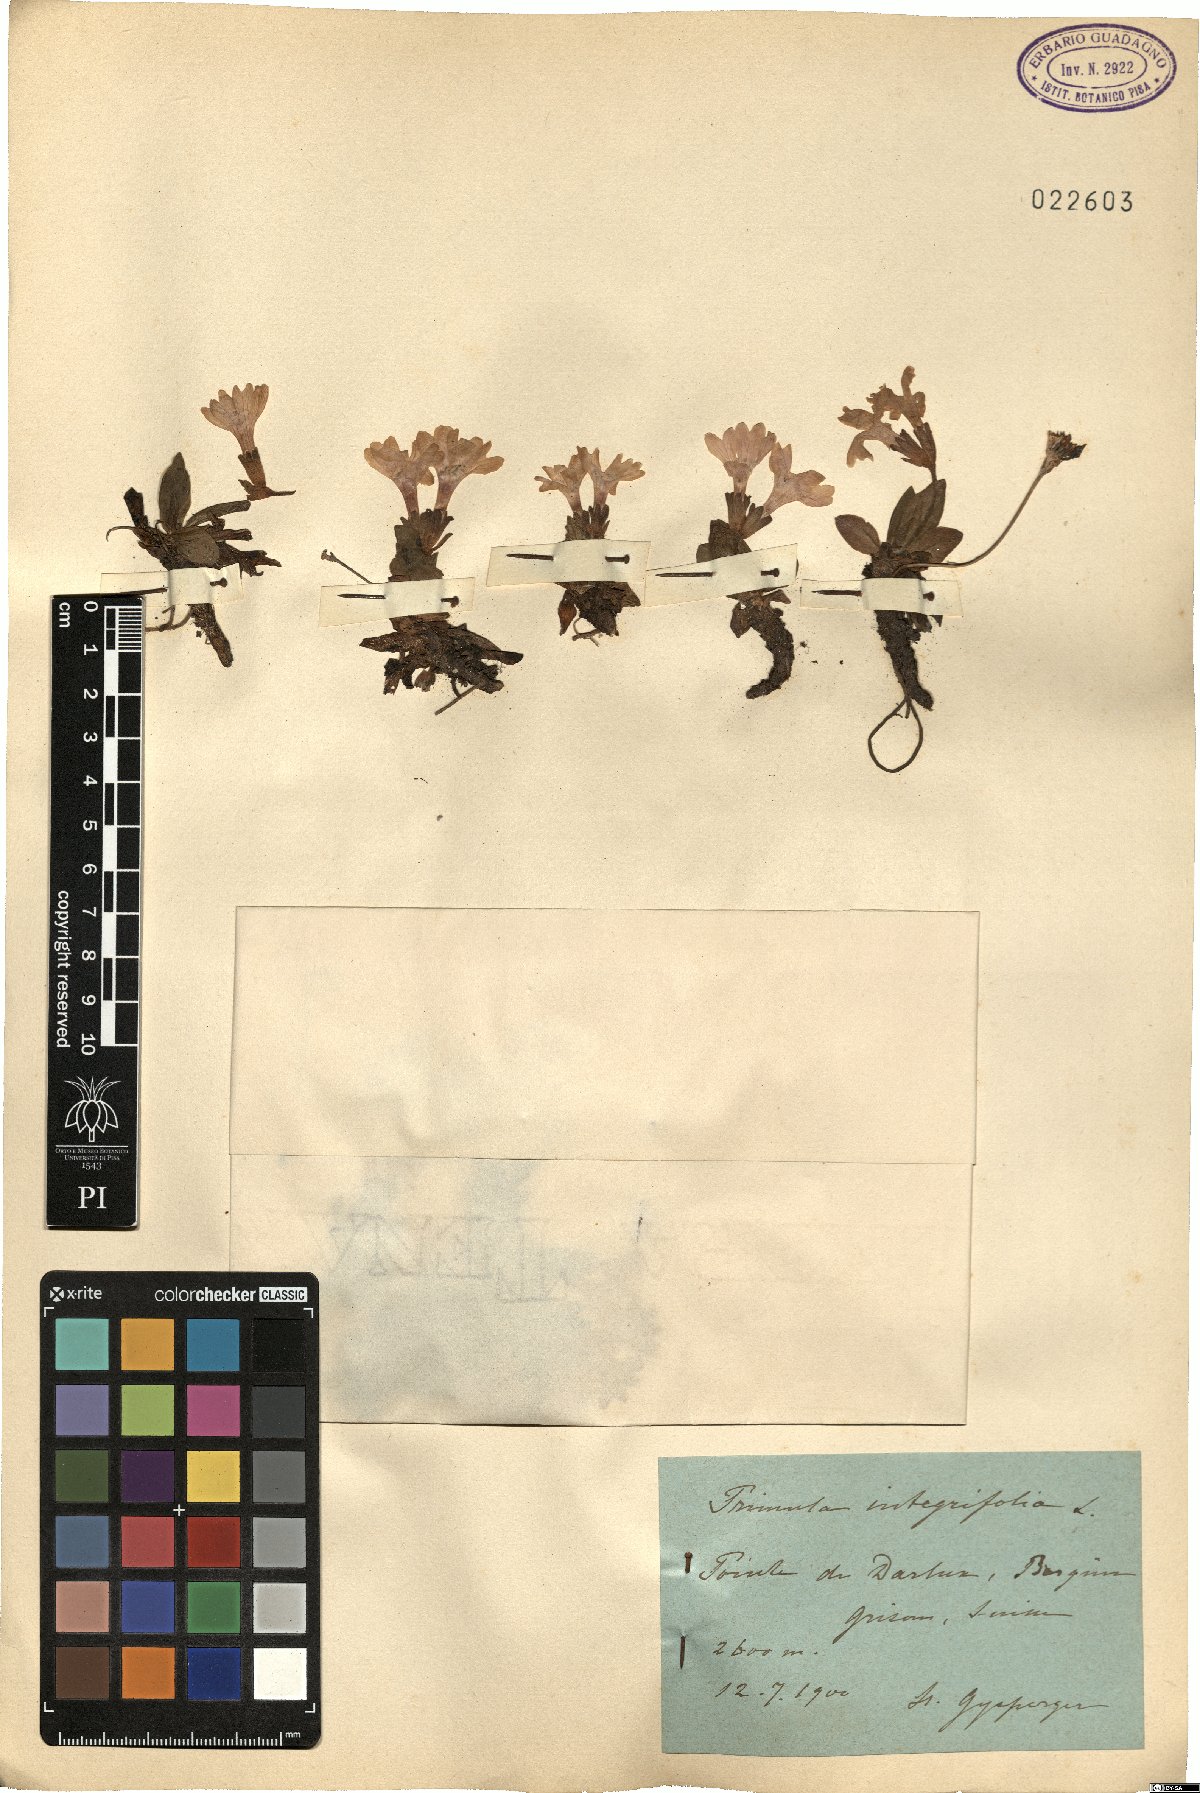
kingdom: Plantae
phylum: Tracheophyta
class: Magnoliopsida
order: Ericales
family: Primulaceae
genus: Primula
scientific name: Primula integrifolia
